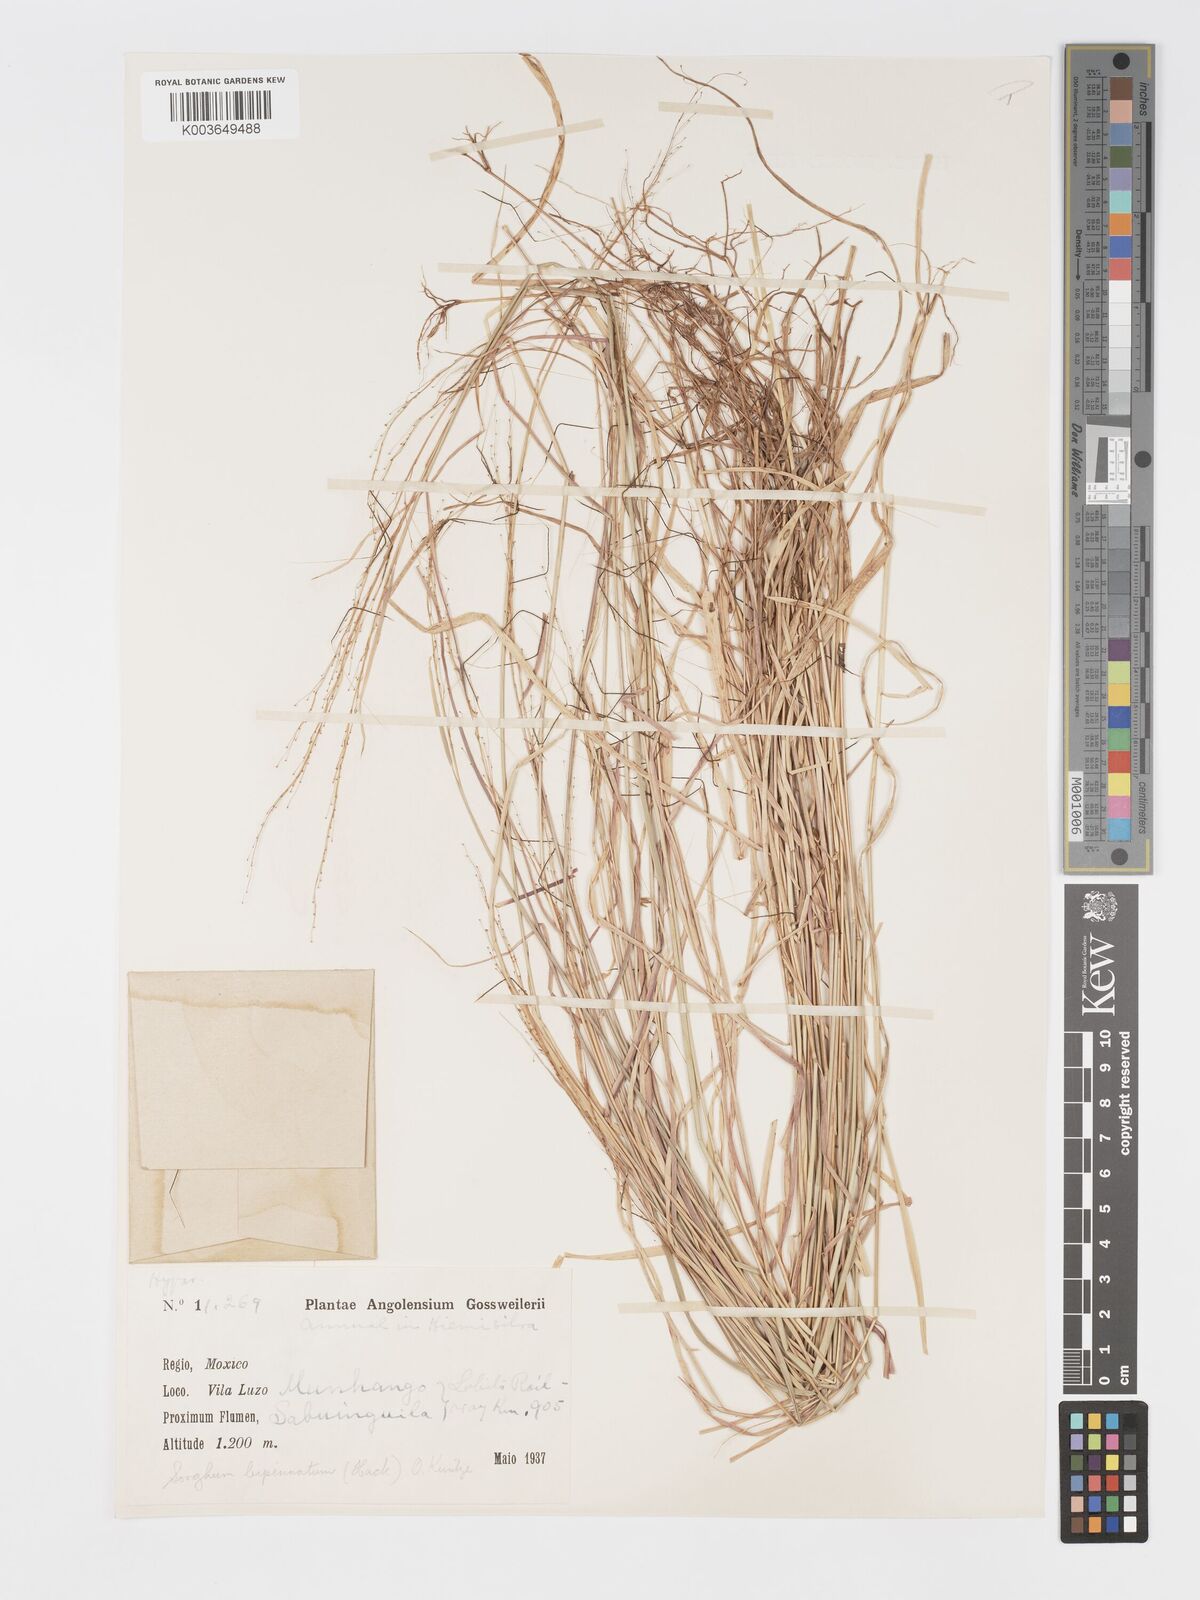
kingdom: Plantae
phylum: Tracheophyta
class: Liliopsida
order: Poales
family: Poaceae
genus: Sorghastrum
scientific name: Sorghastrum incompletum
